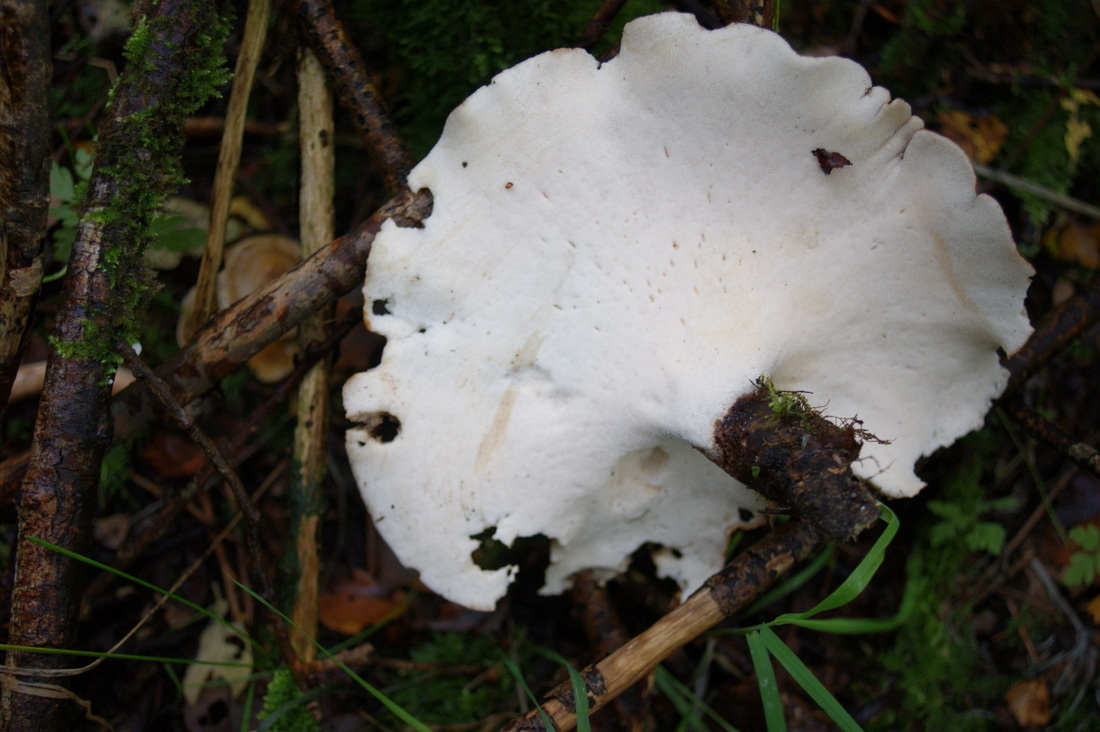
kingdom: Fungi
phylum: Basidiomycota
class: Agaricomycetes
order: Polyporales
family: Polyporaceae
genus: Picipes
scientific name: Picipes melanopus
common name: sortfodet stilkporesvamp
